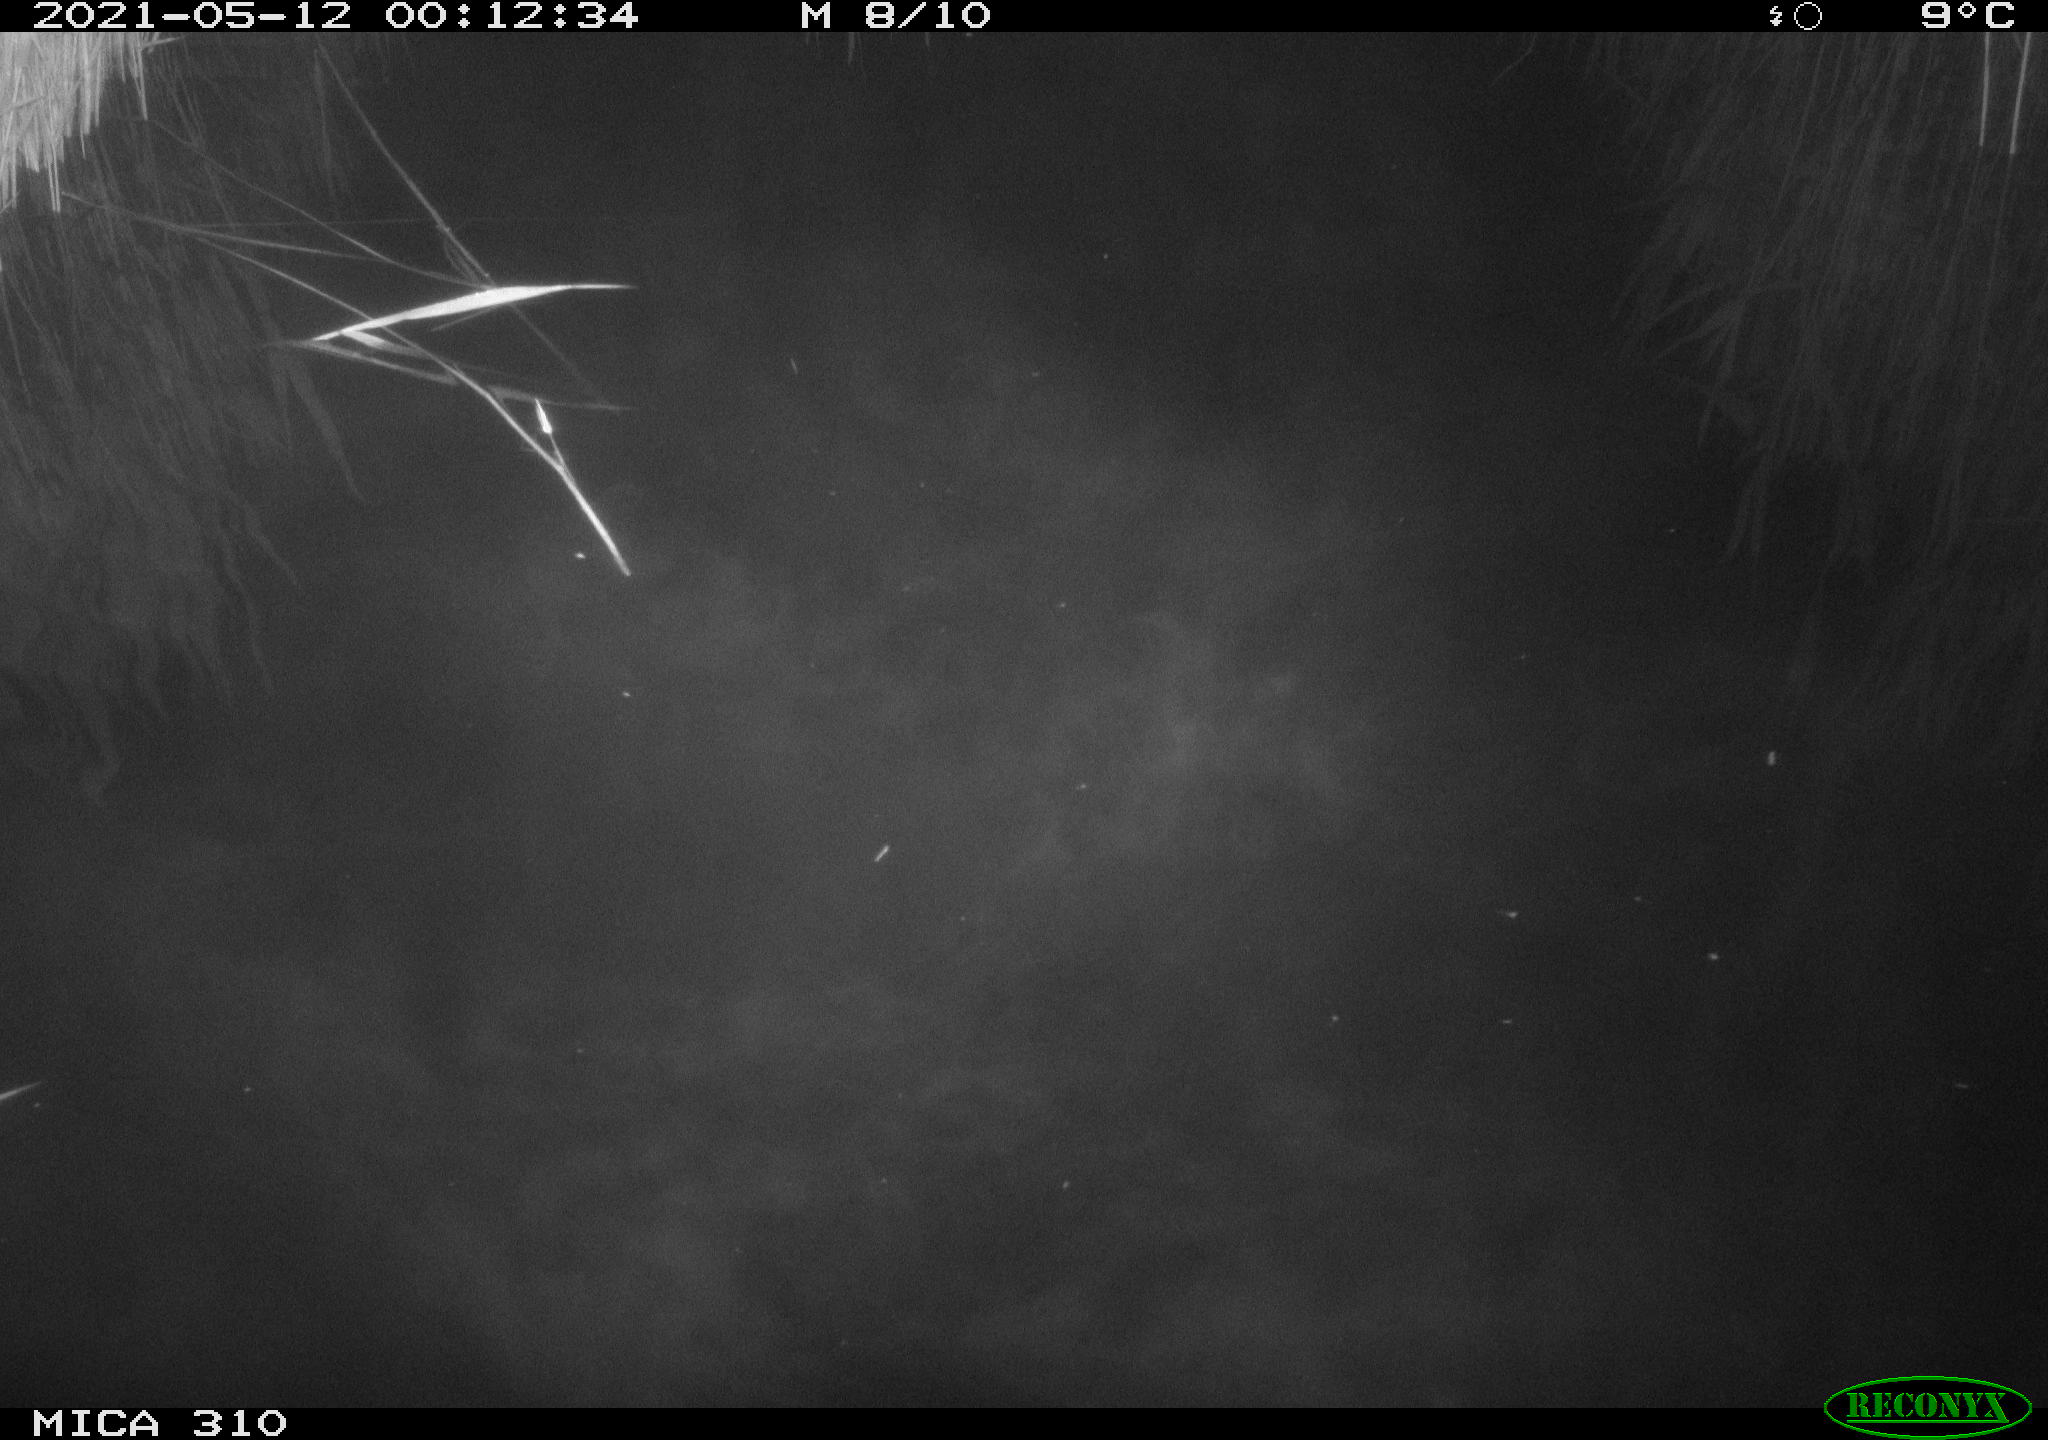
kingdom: Animalia
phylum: Chordata
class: Aves
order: Anseriformes
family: Anatidae
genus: Anas
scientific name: Anas platyrhynchos
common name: Mallard
